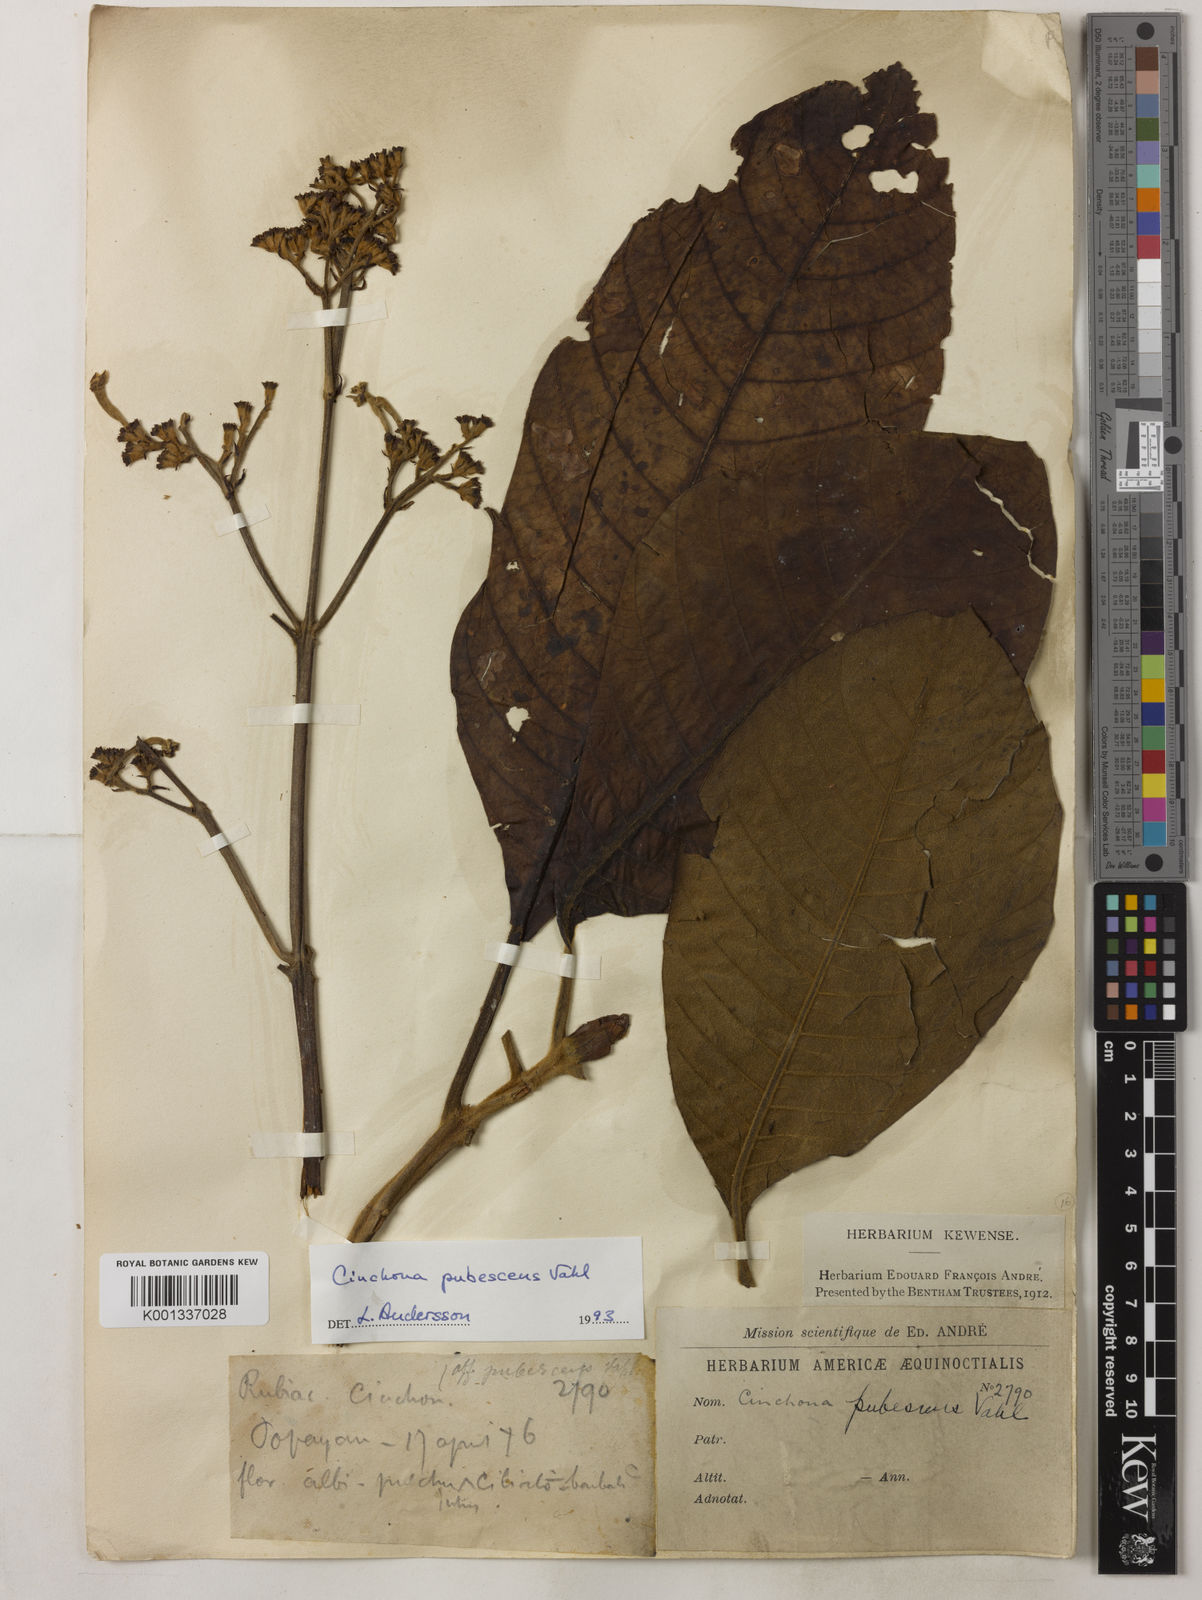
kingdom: Plantae
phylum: Tracheophyta
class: Magnoliopsida
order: Gentianales
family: Rubiaceae
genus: Cinchona
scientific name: Cinchona pubescens
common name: Quinine
